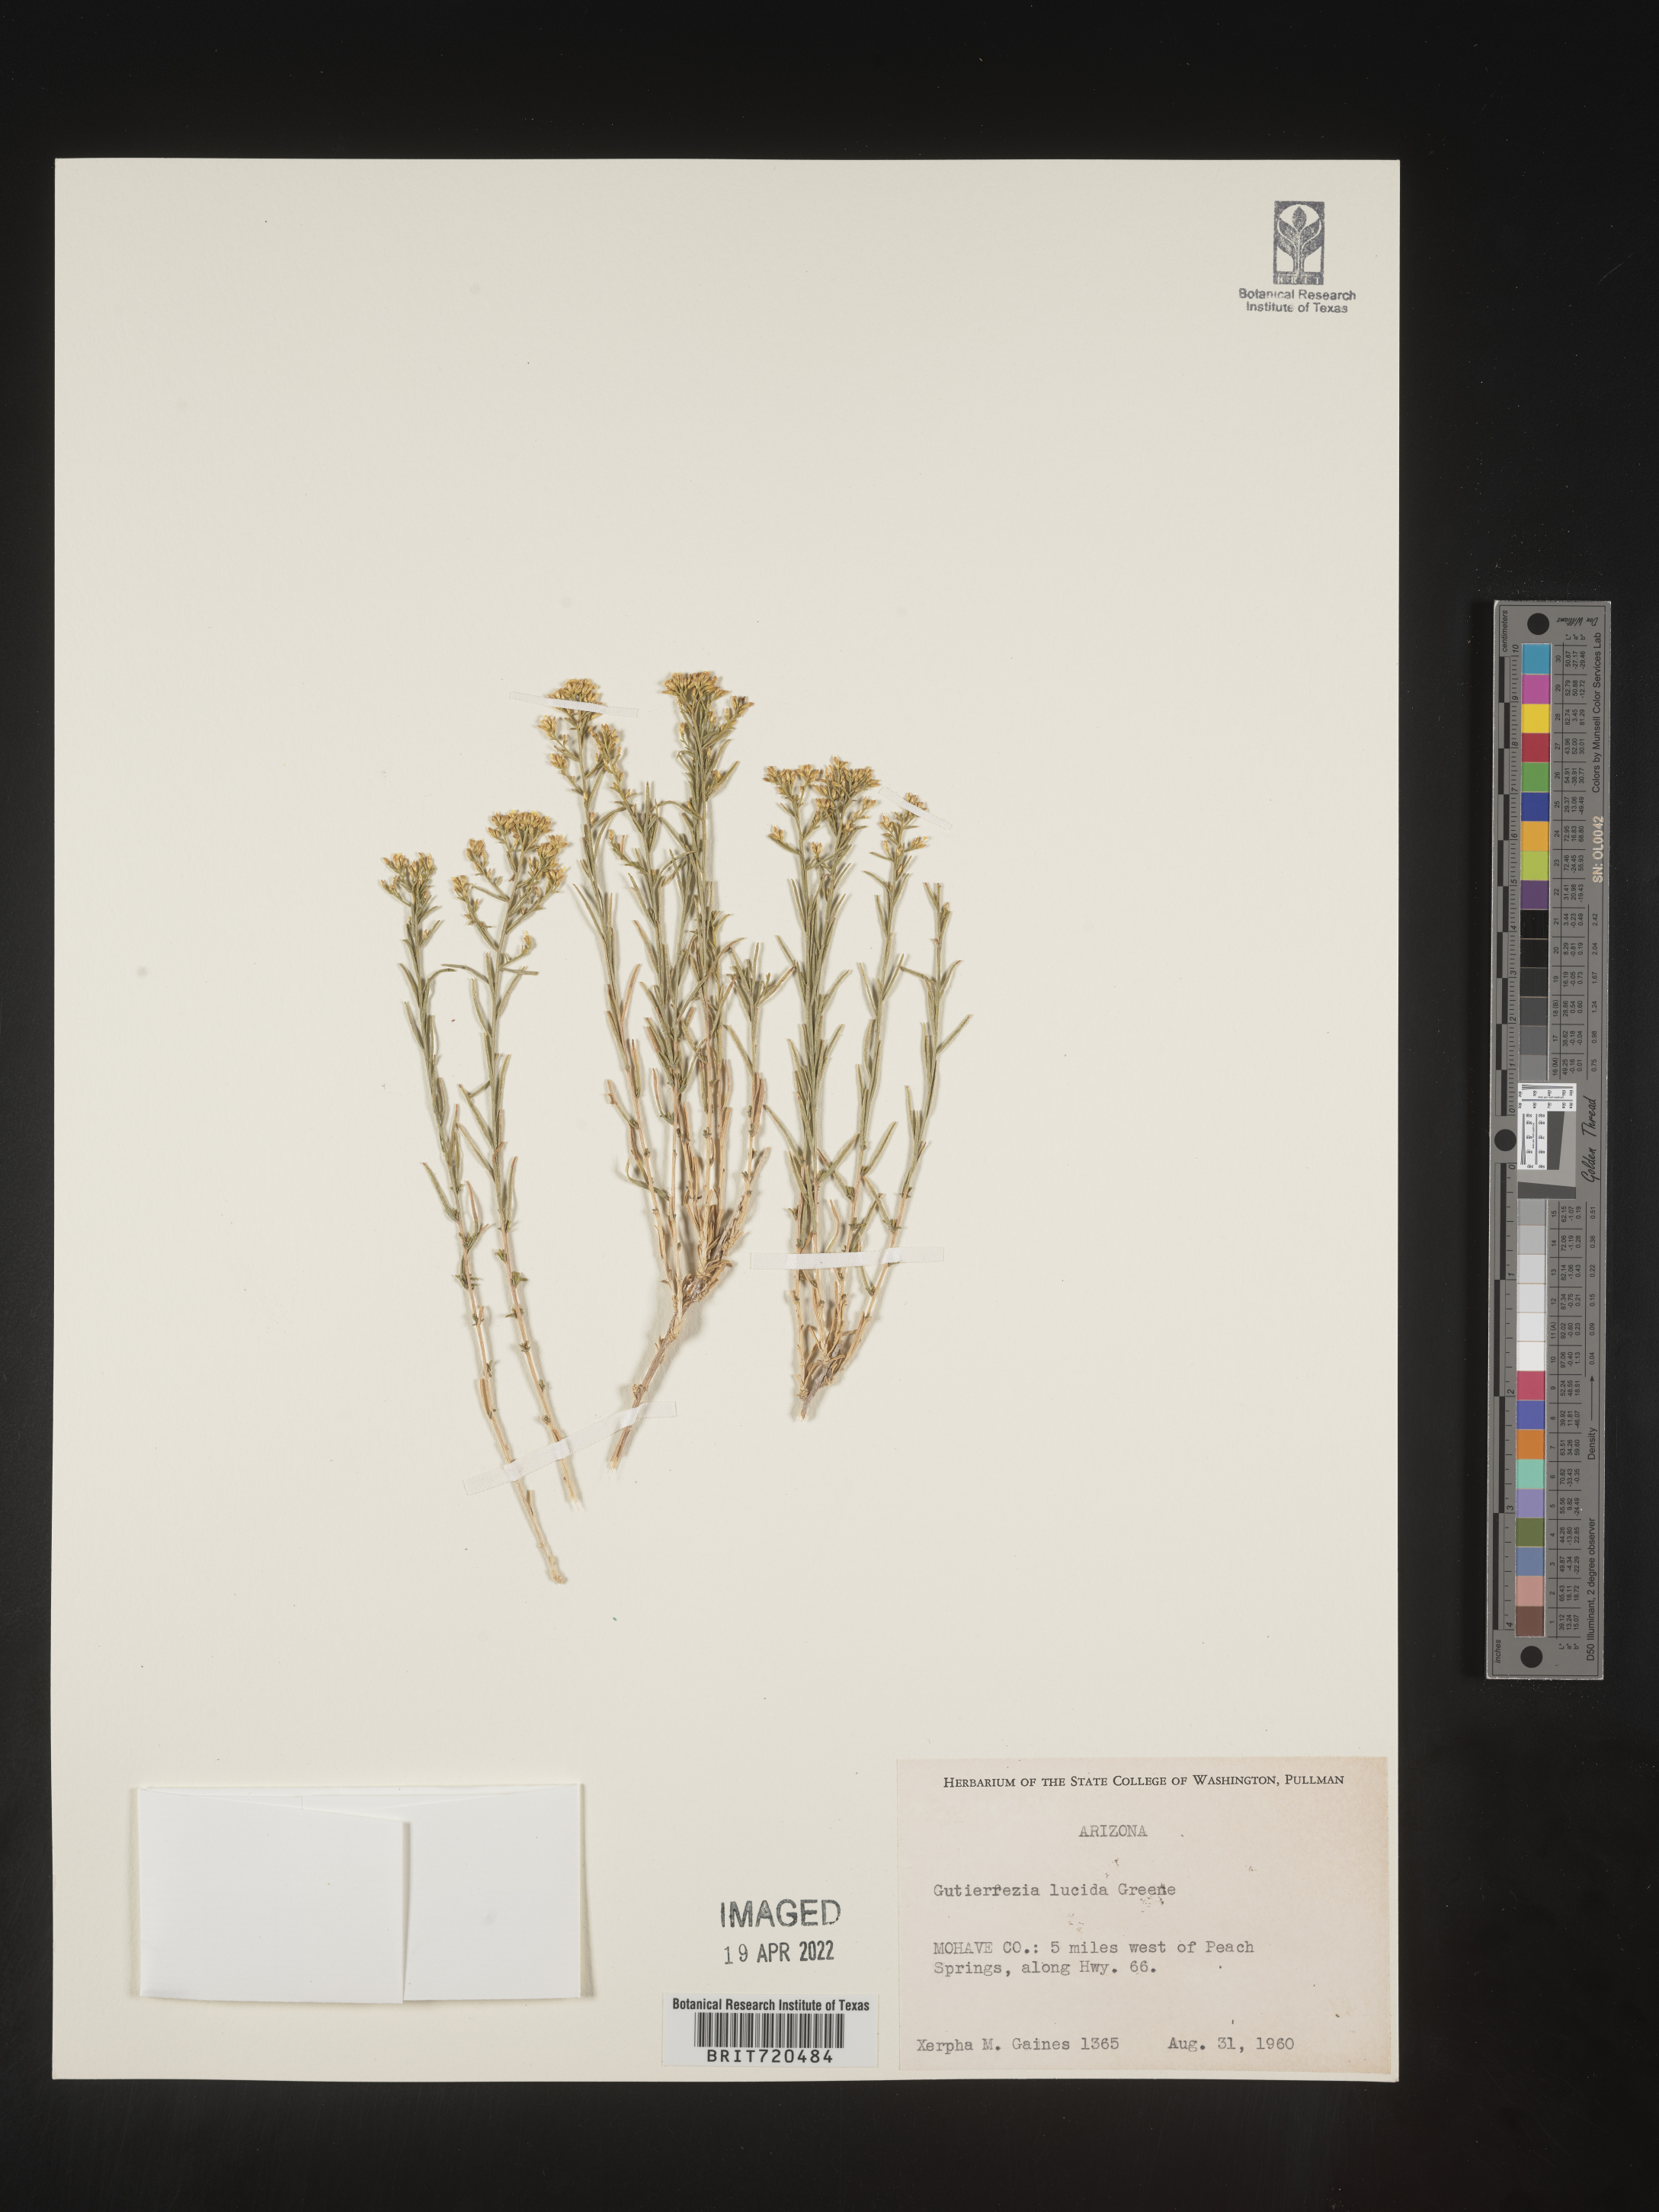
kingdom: Plantae
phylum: Tracheophyta
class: Magnoliopsida
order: Asterales
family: Asteraceae
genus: Gutierrezia
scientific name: Gutierrezia microcephala
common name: Thread snakeweed
